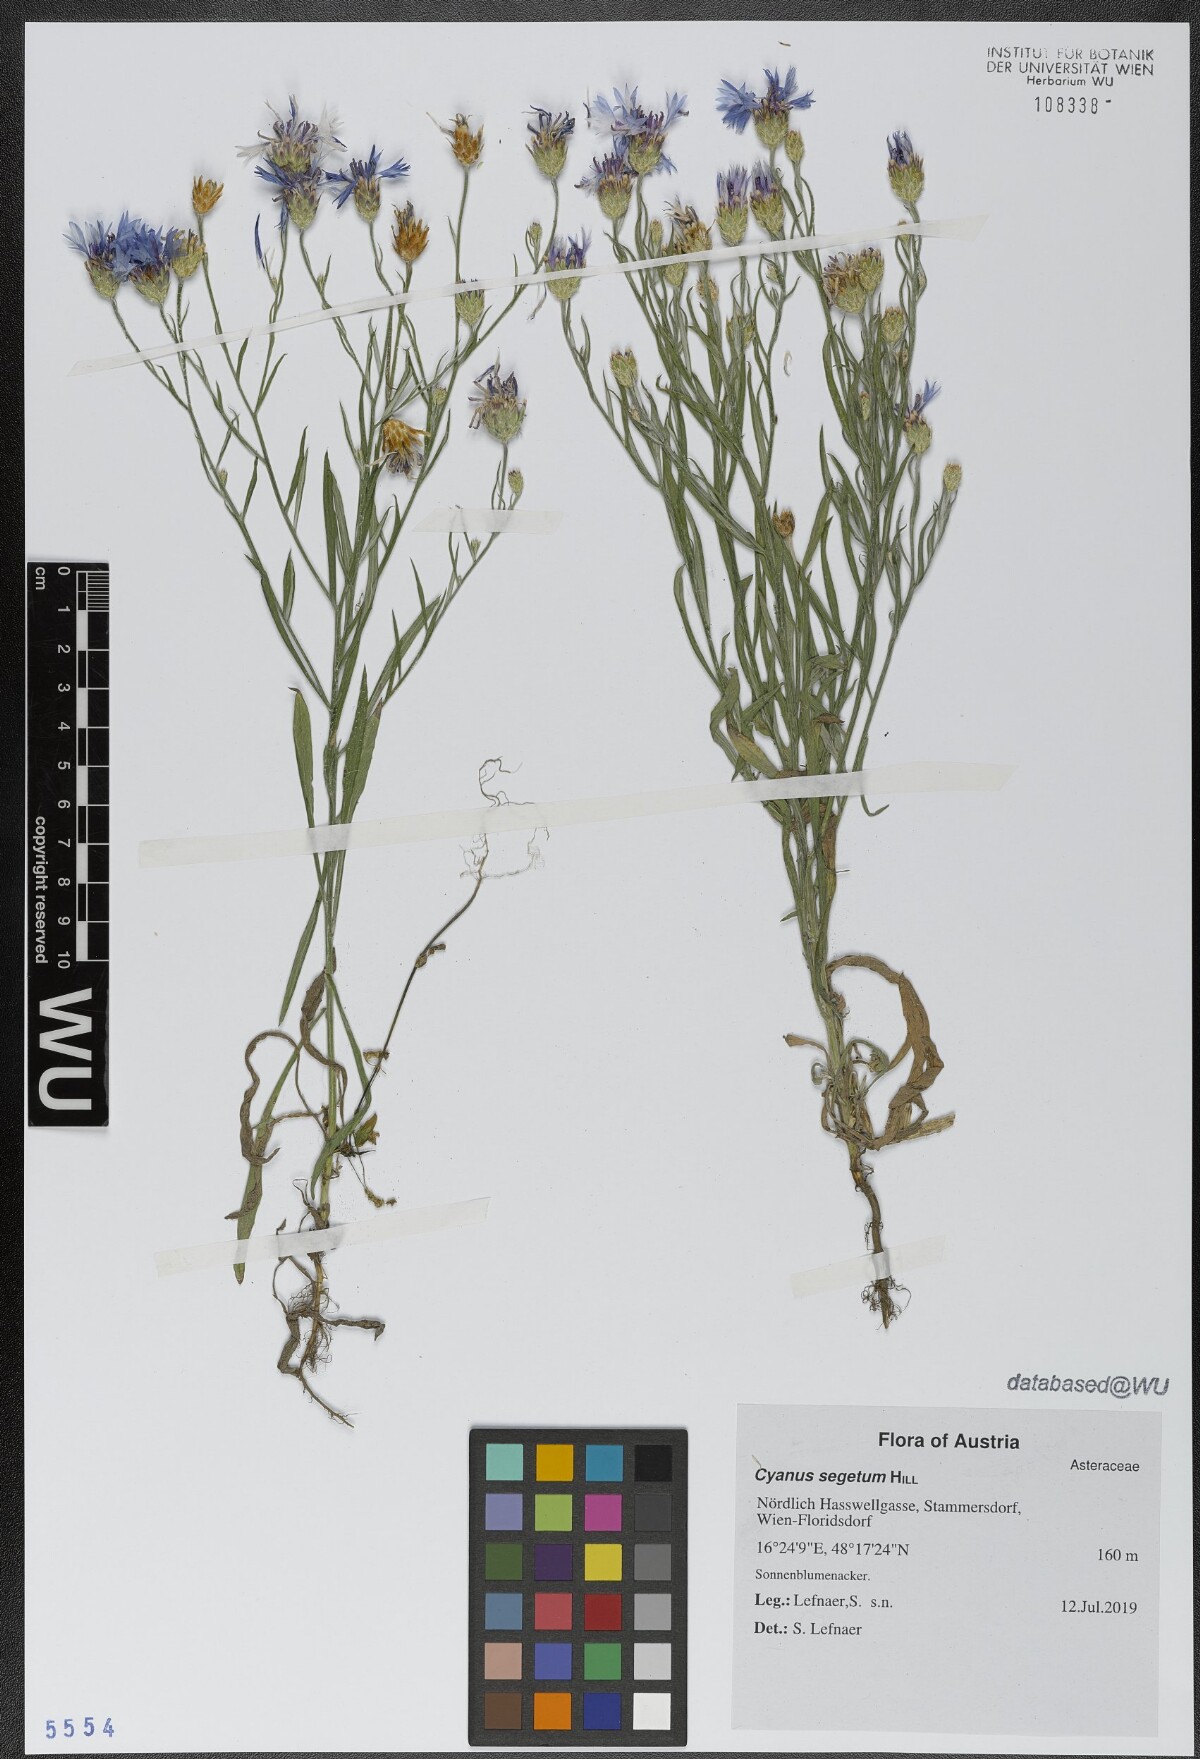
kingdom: Plantae
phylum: Tracheophyta
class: Magnoliopsida
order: Asterales
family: Asteraceae
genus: Centaurea
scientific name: Centaurea cyanus
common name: Cornflower
